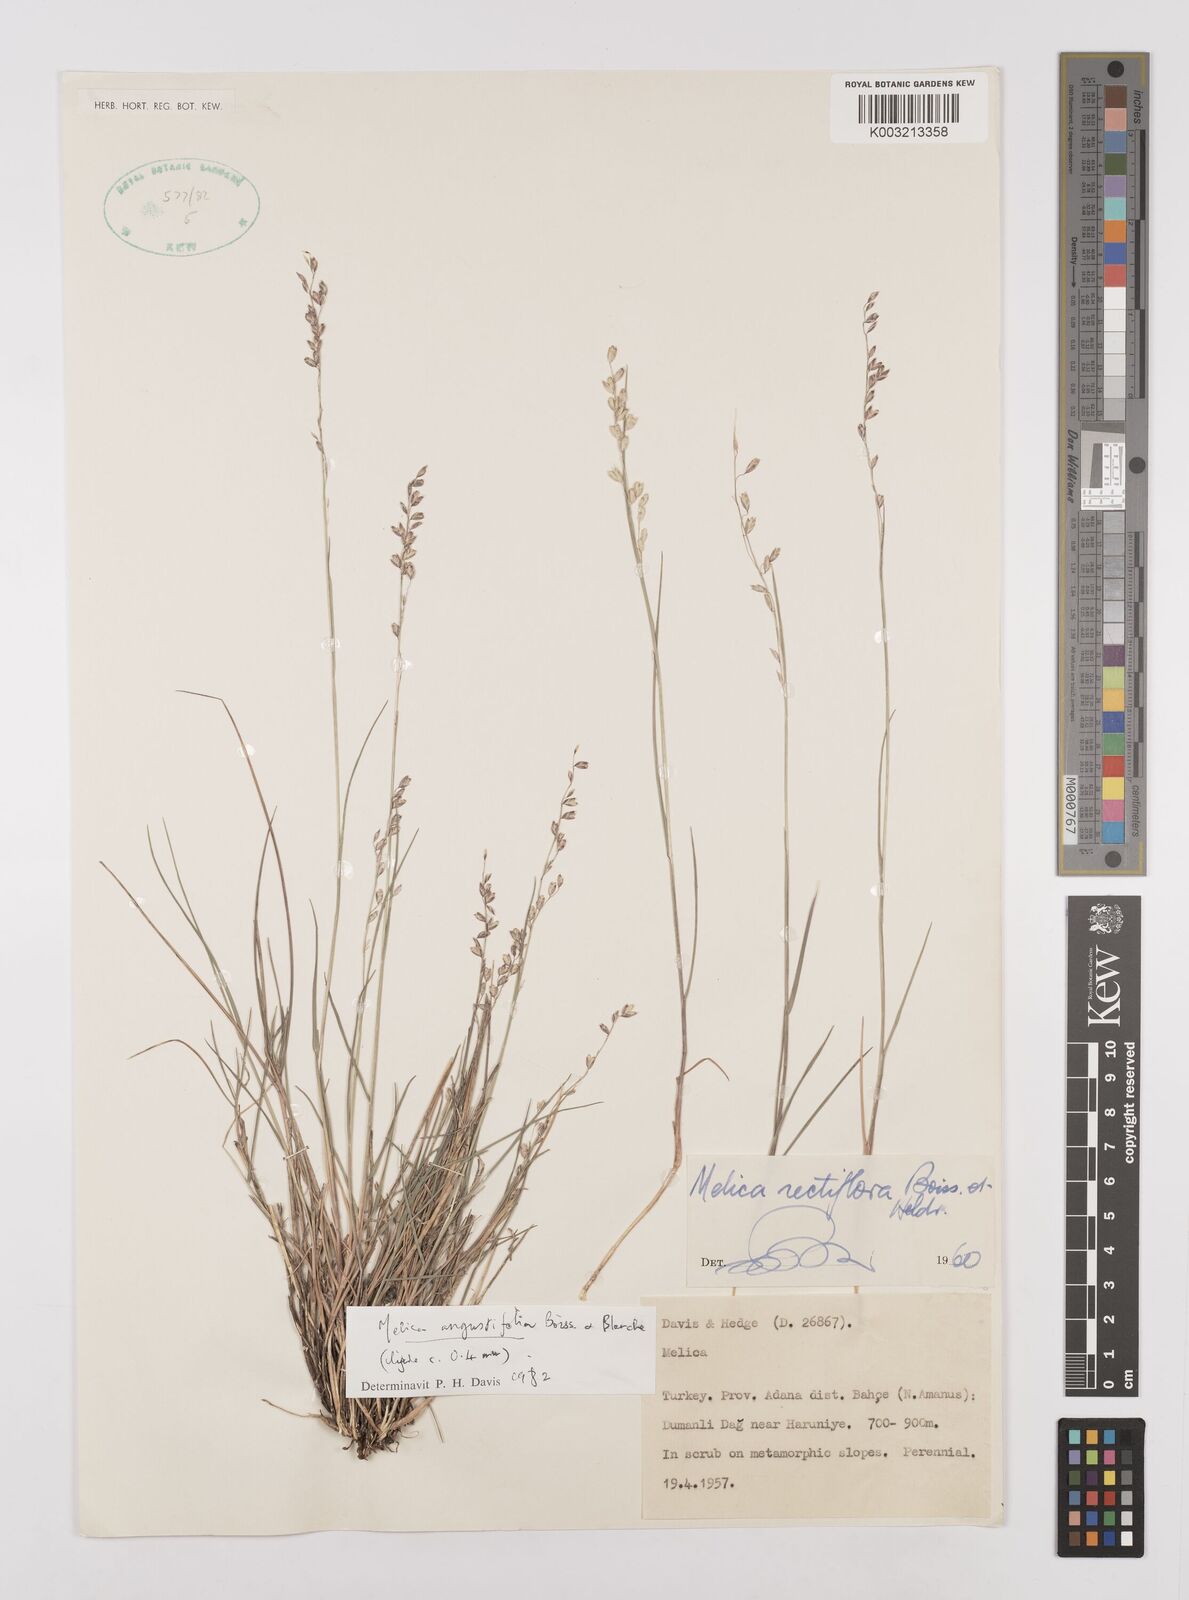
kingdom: Plantae
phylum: Tracheophyta
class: Liliopsida
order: Poales
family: Poaceae
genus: Melica
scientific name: Melica
